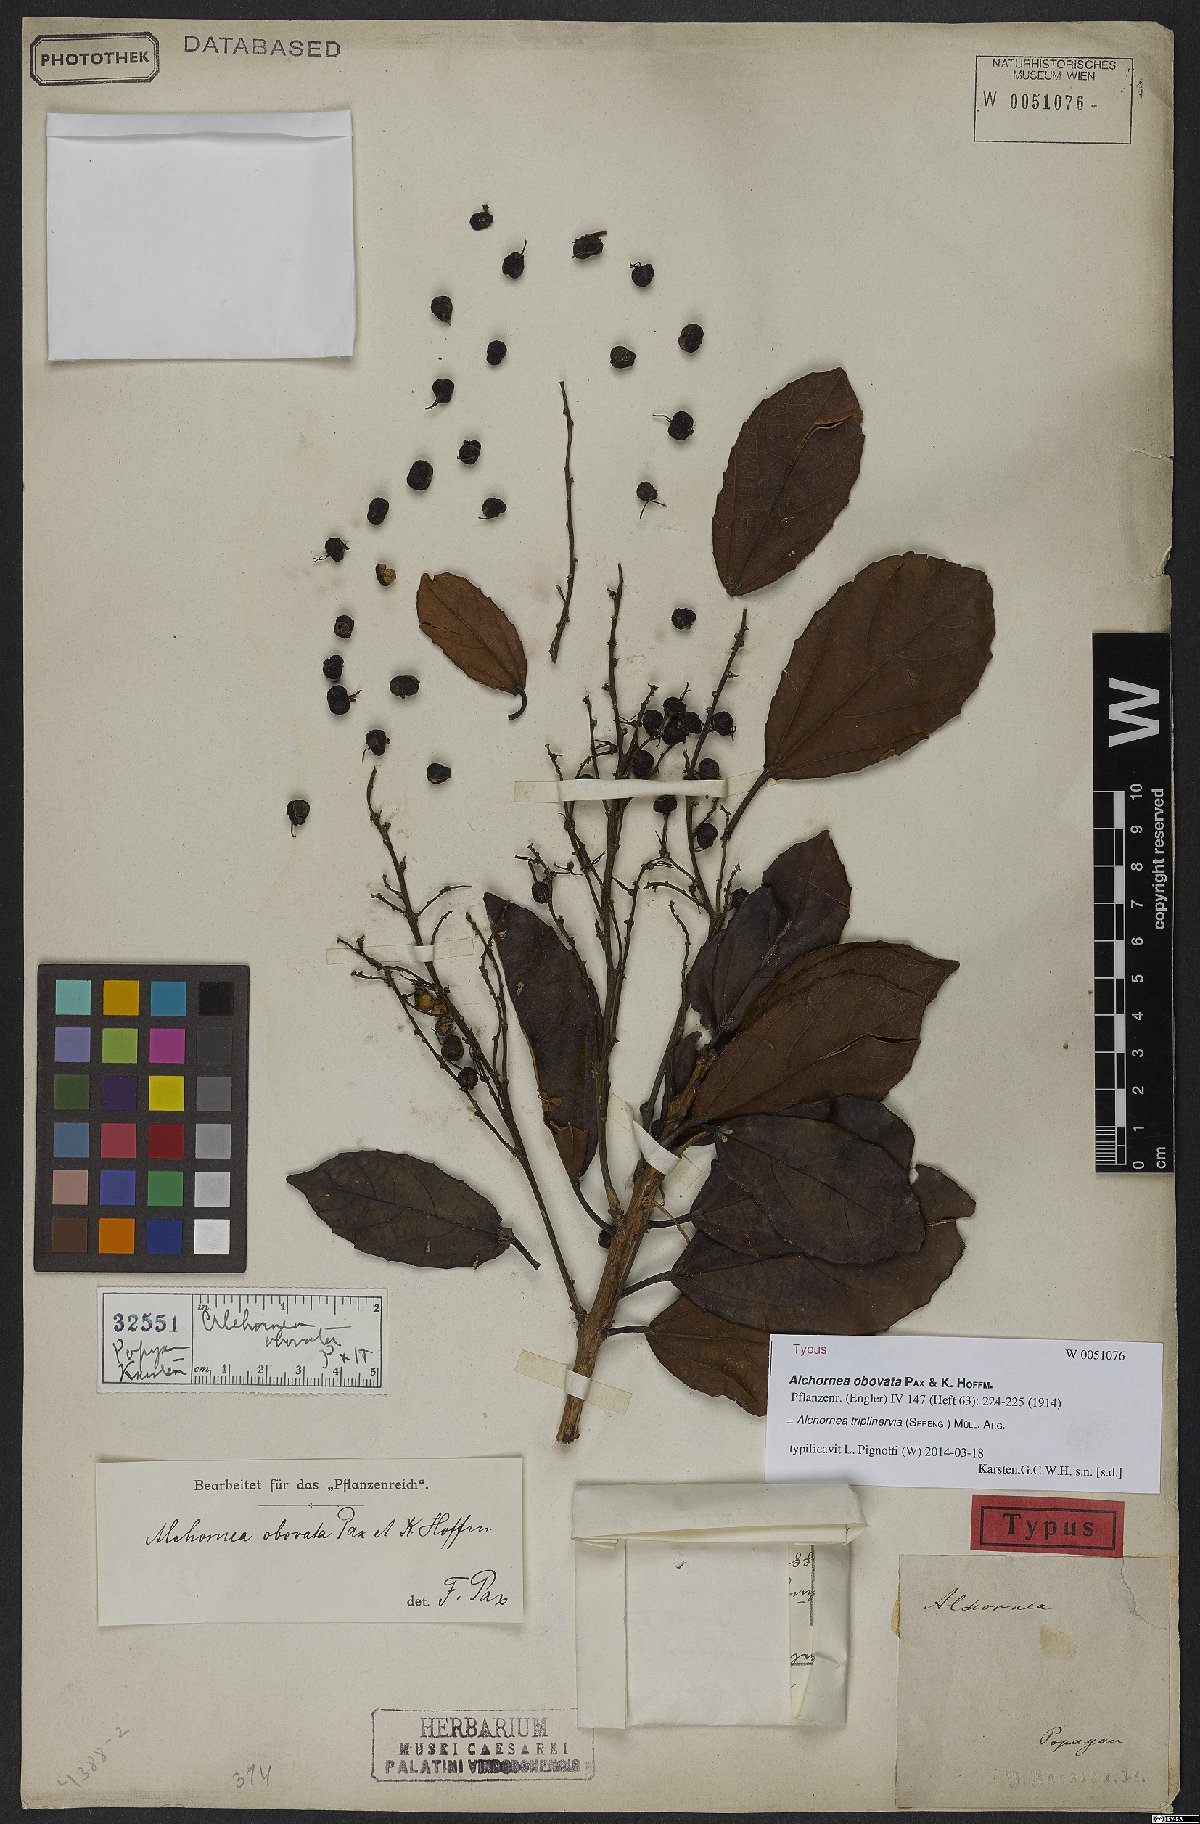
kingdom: Plantae
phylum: Tracheophyta
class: Magnoliopsida
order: Malpighiales
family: Euphorbiaceae
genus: Alchornea
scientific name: Alchornea triplinervia
